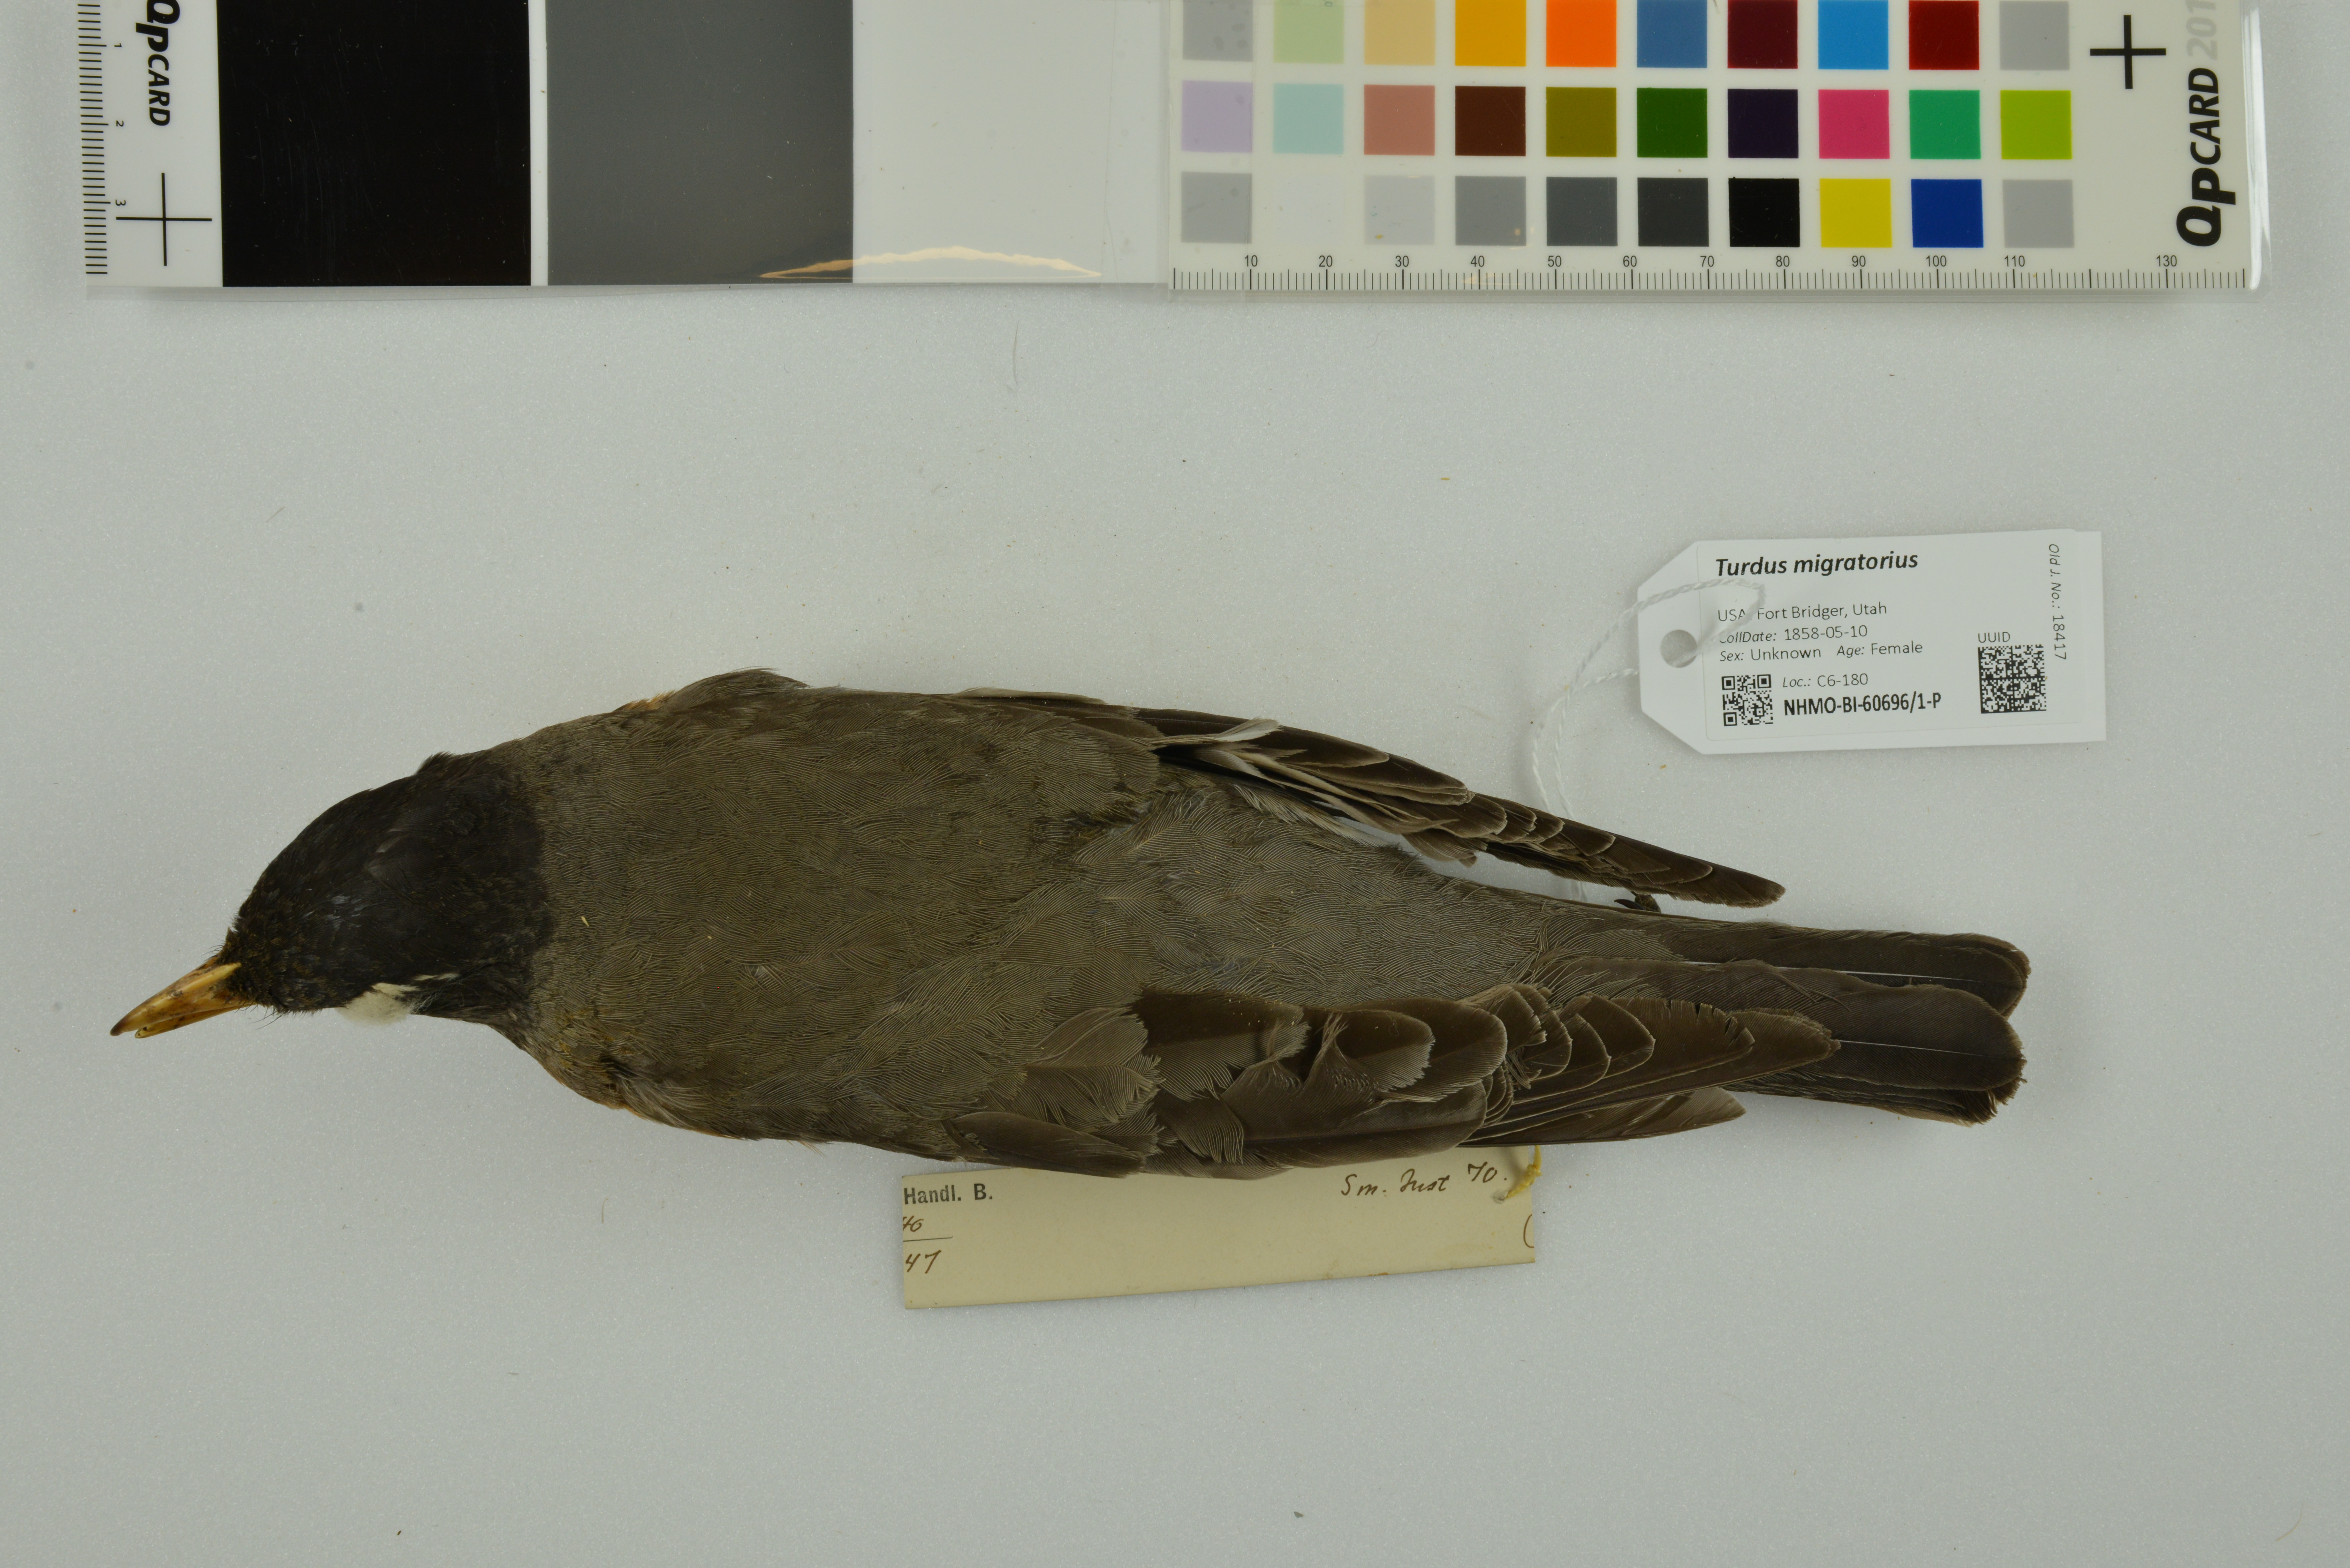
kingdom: Animalia
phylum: Chordata
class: Aves
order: Passeriformes
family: Turdidae
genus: Turdus
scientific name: Turdus migratorius
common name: American robin
